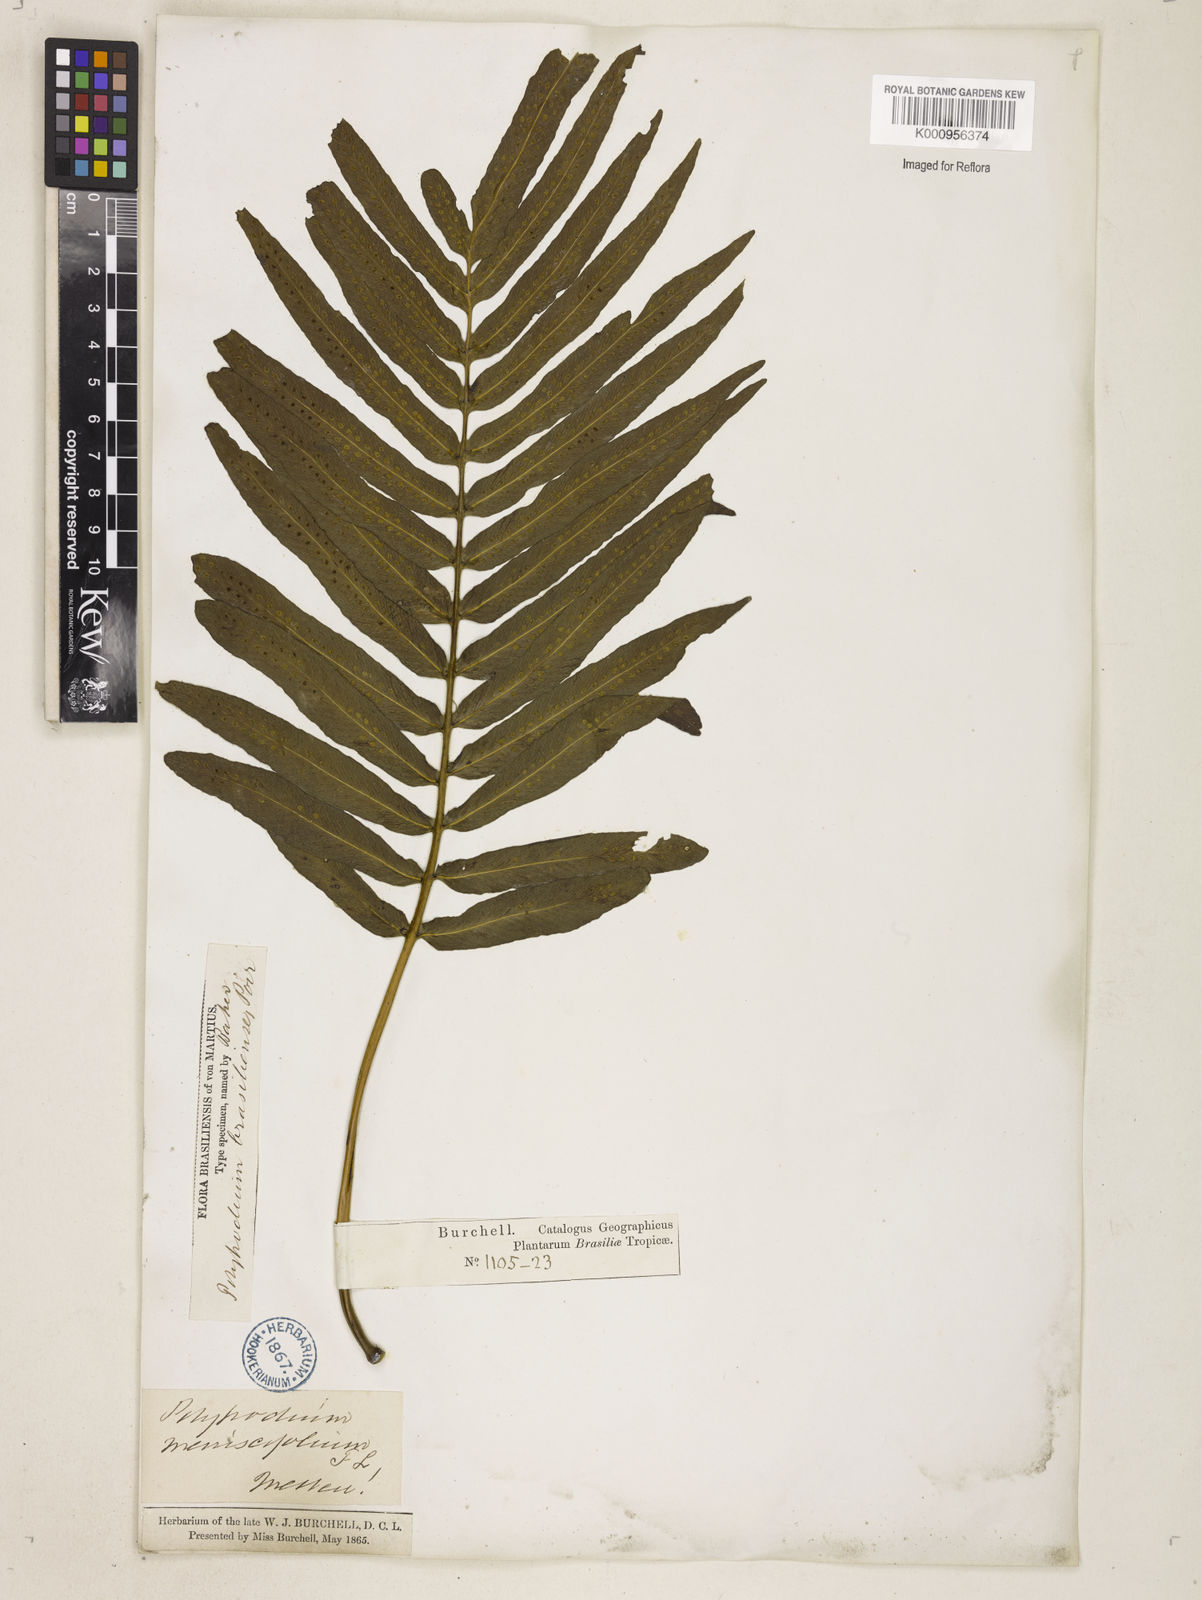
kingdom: Plantae
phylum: Tracheophyta
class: Polypodiopsida
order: Polypodiales
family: Polypodiaceae
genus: Serpocaulon
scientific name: Serpocaulon triseriale
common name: Angle-vein fern
